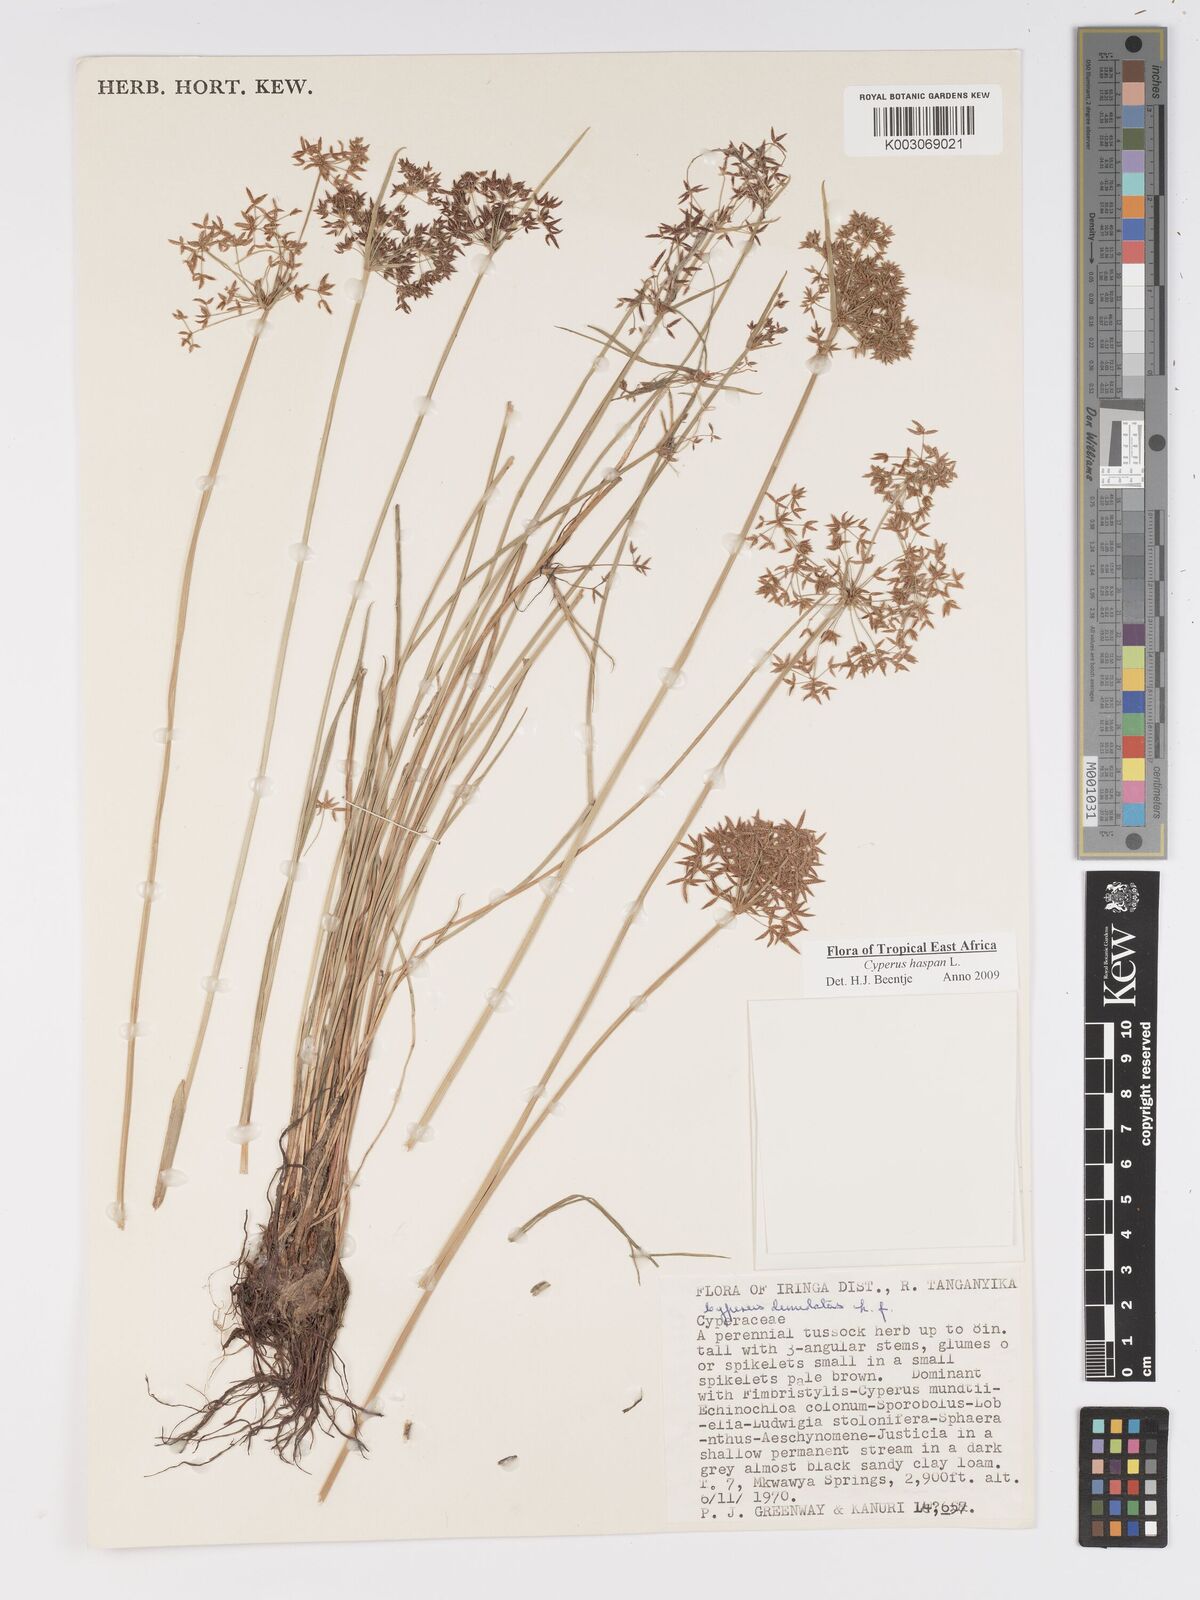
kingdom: Plantae
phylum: Tracheophyta
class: Liliopsida
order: Poales
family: Cyperaceae
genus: Cyperus
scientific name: Cyperus
